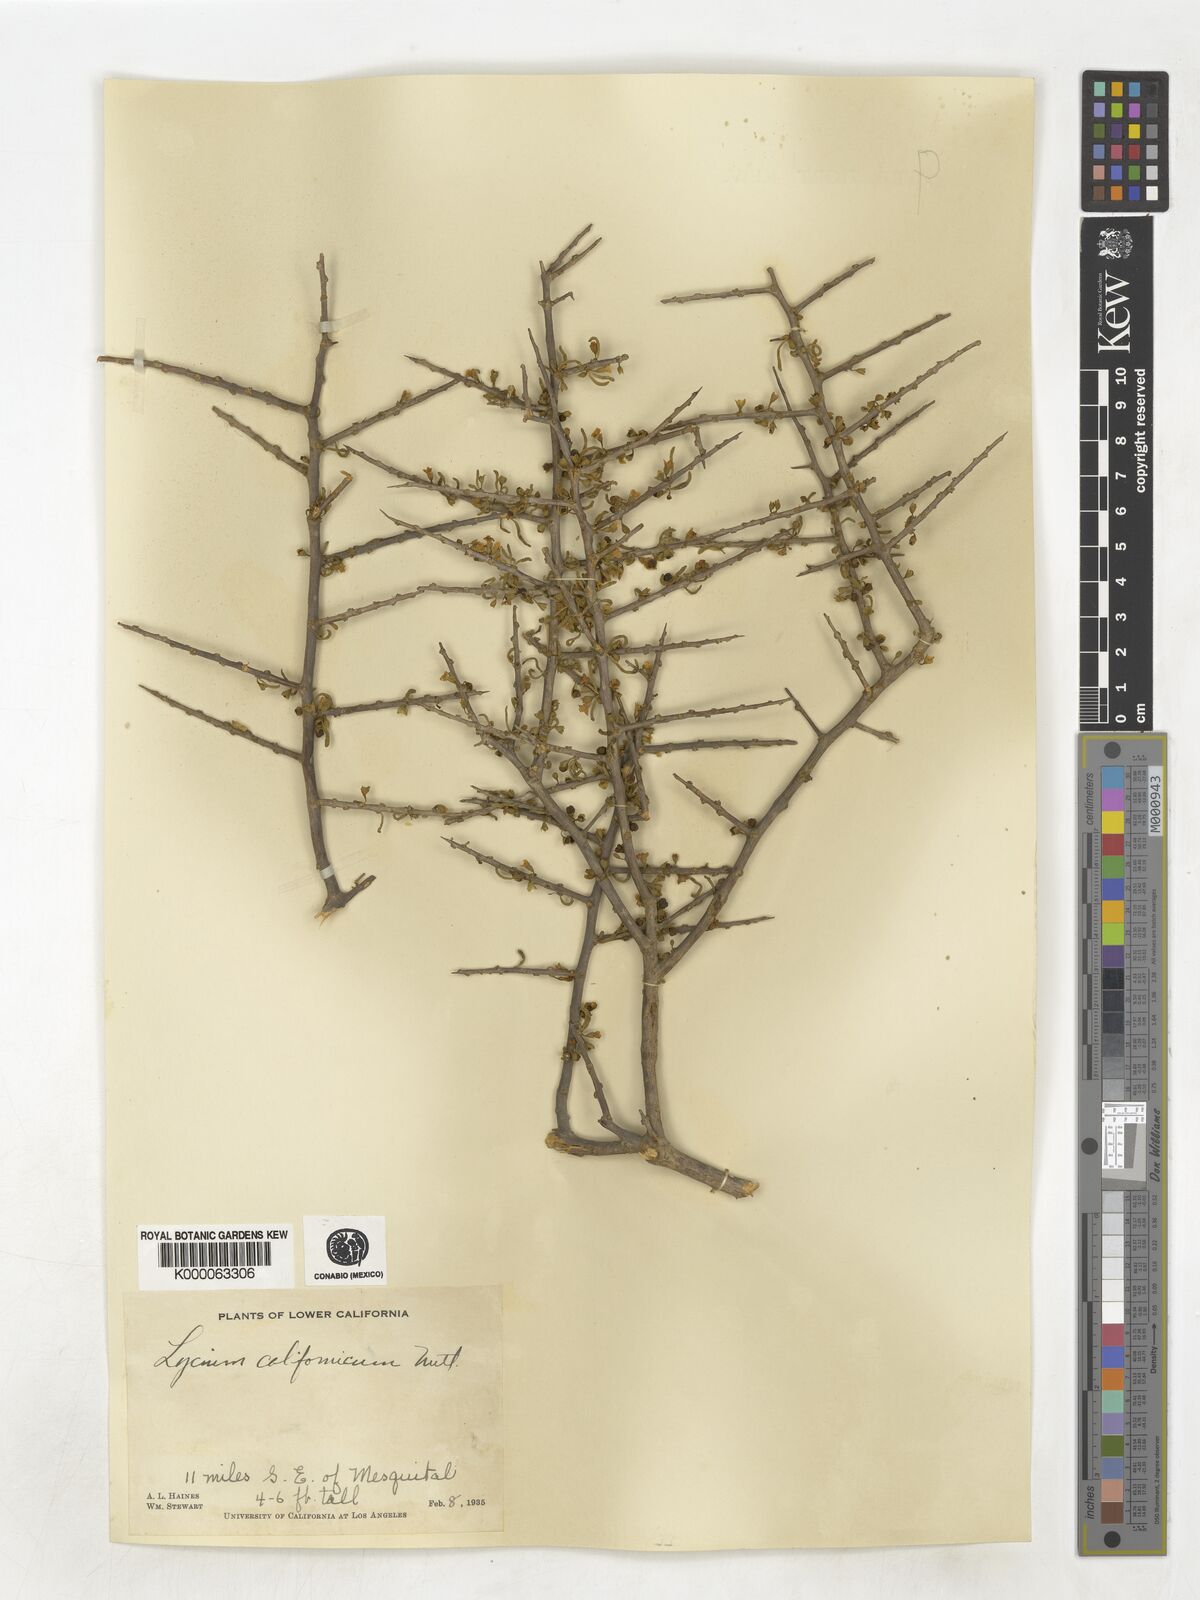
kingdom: Plantae
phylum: Tracheophyta
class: Magnoliopsida
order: Solanales
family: Solanaceae
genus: Lycium
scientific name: Lycium californicum
